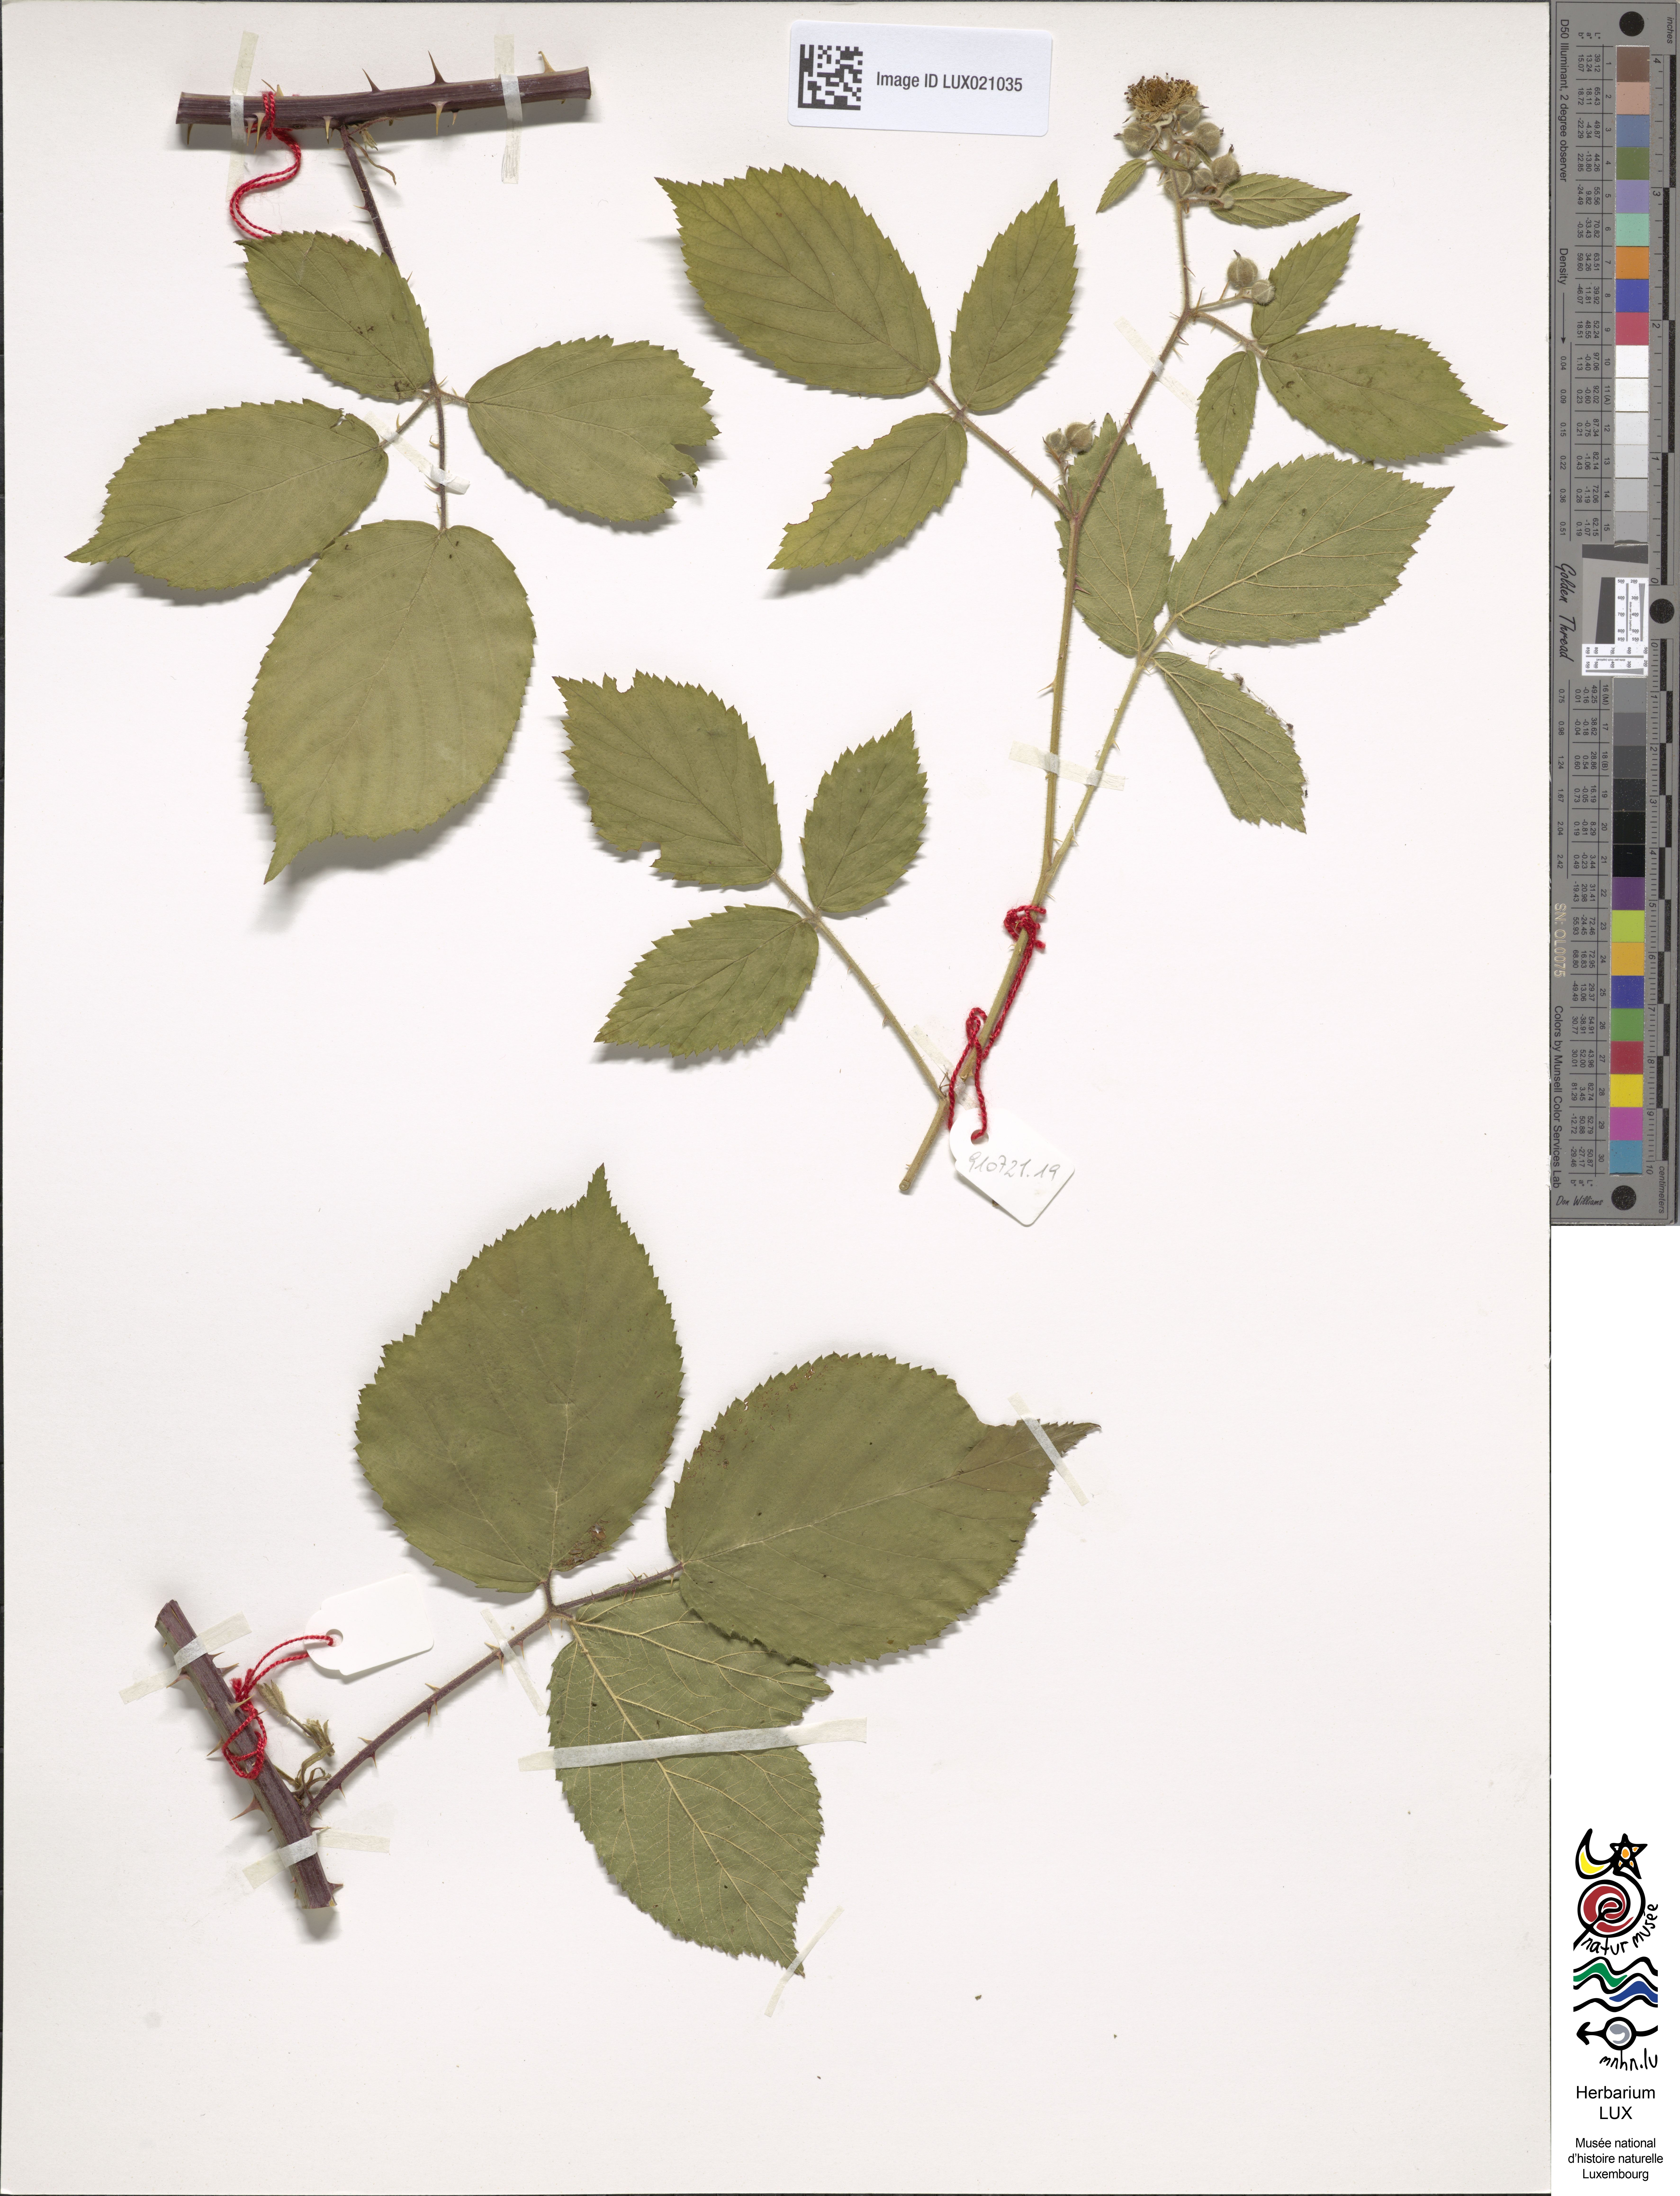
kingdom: Plantae
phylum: Tracheophyta
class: Magnoliopsida
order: Rosales
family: Rosaceae
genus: Rubus
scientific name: Rubus macrodontus
